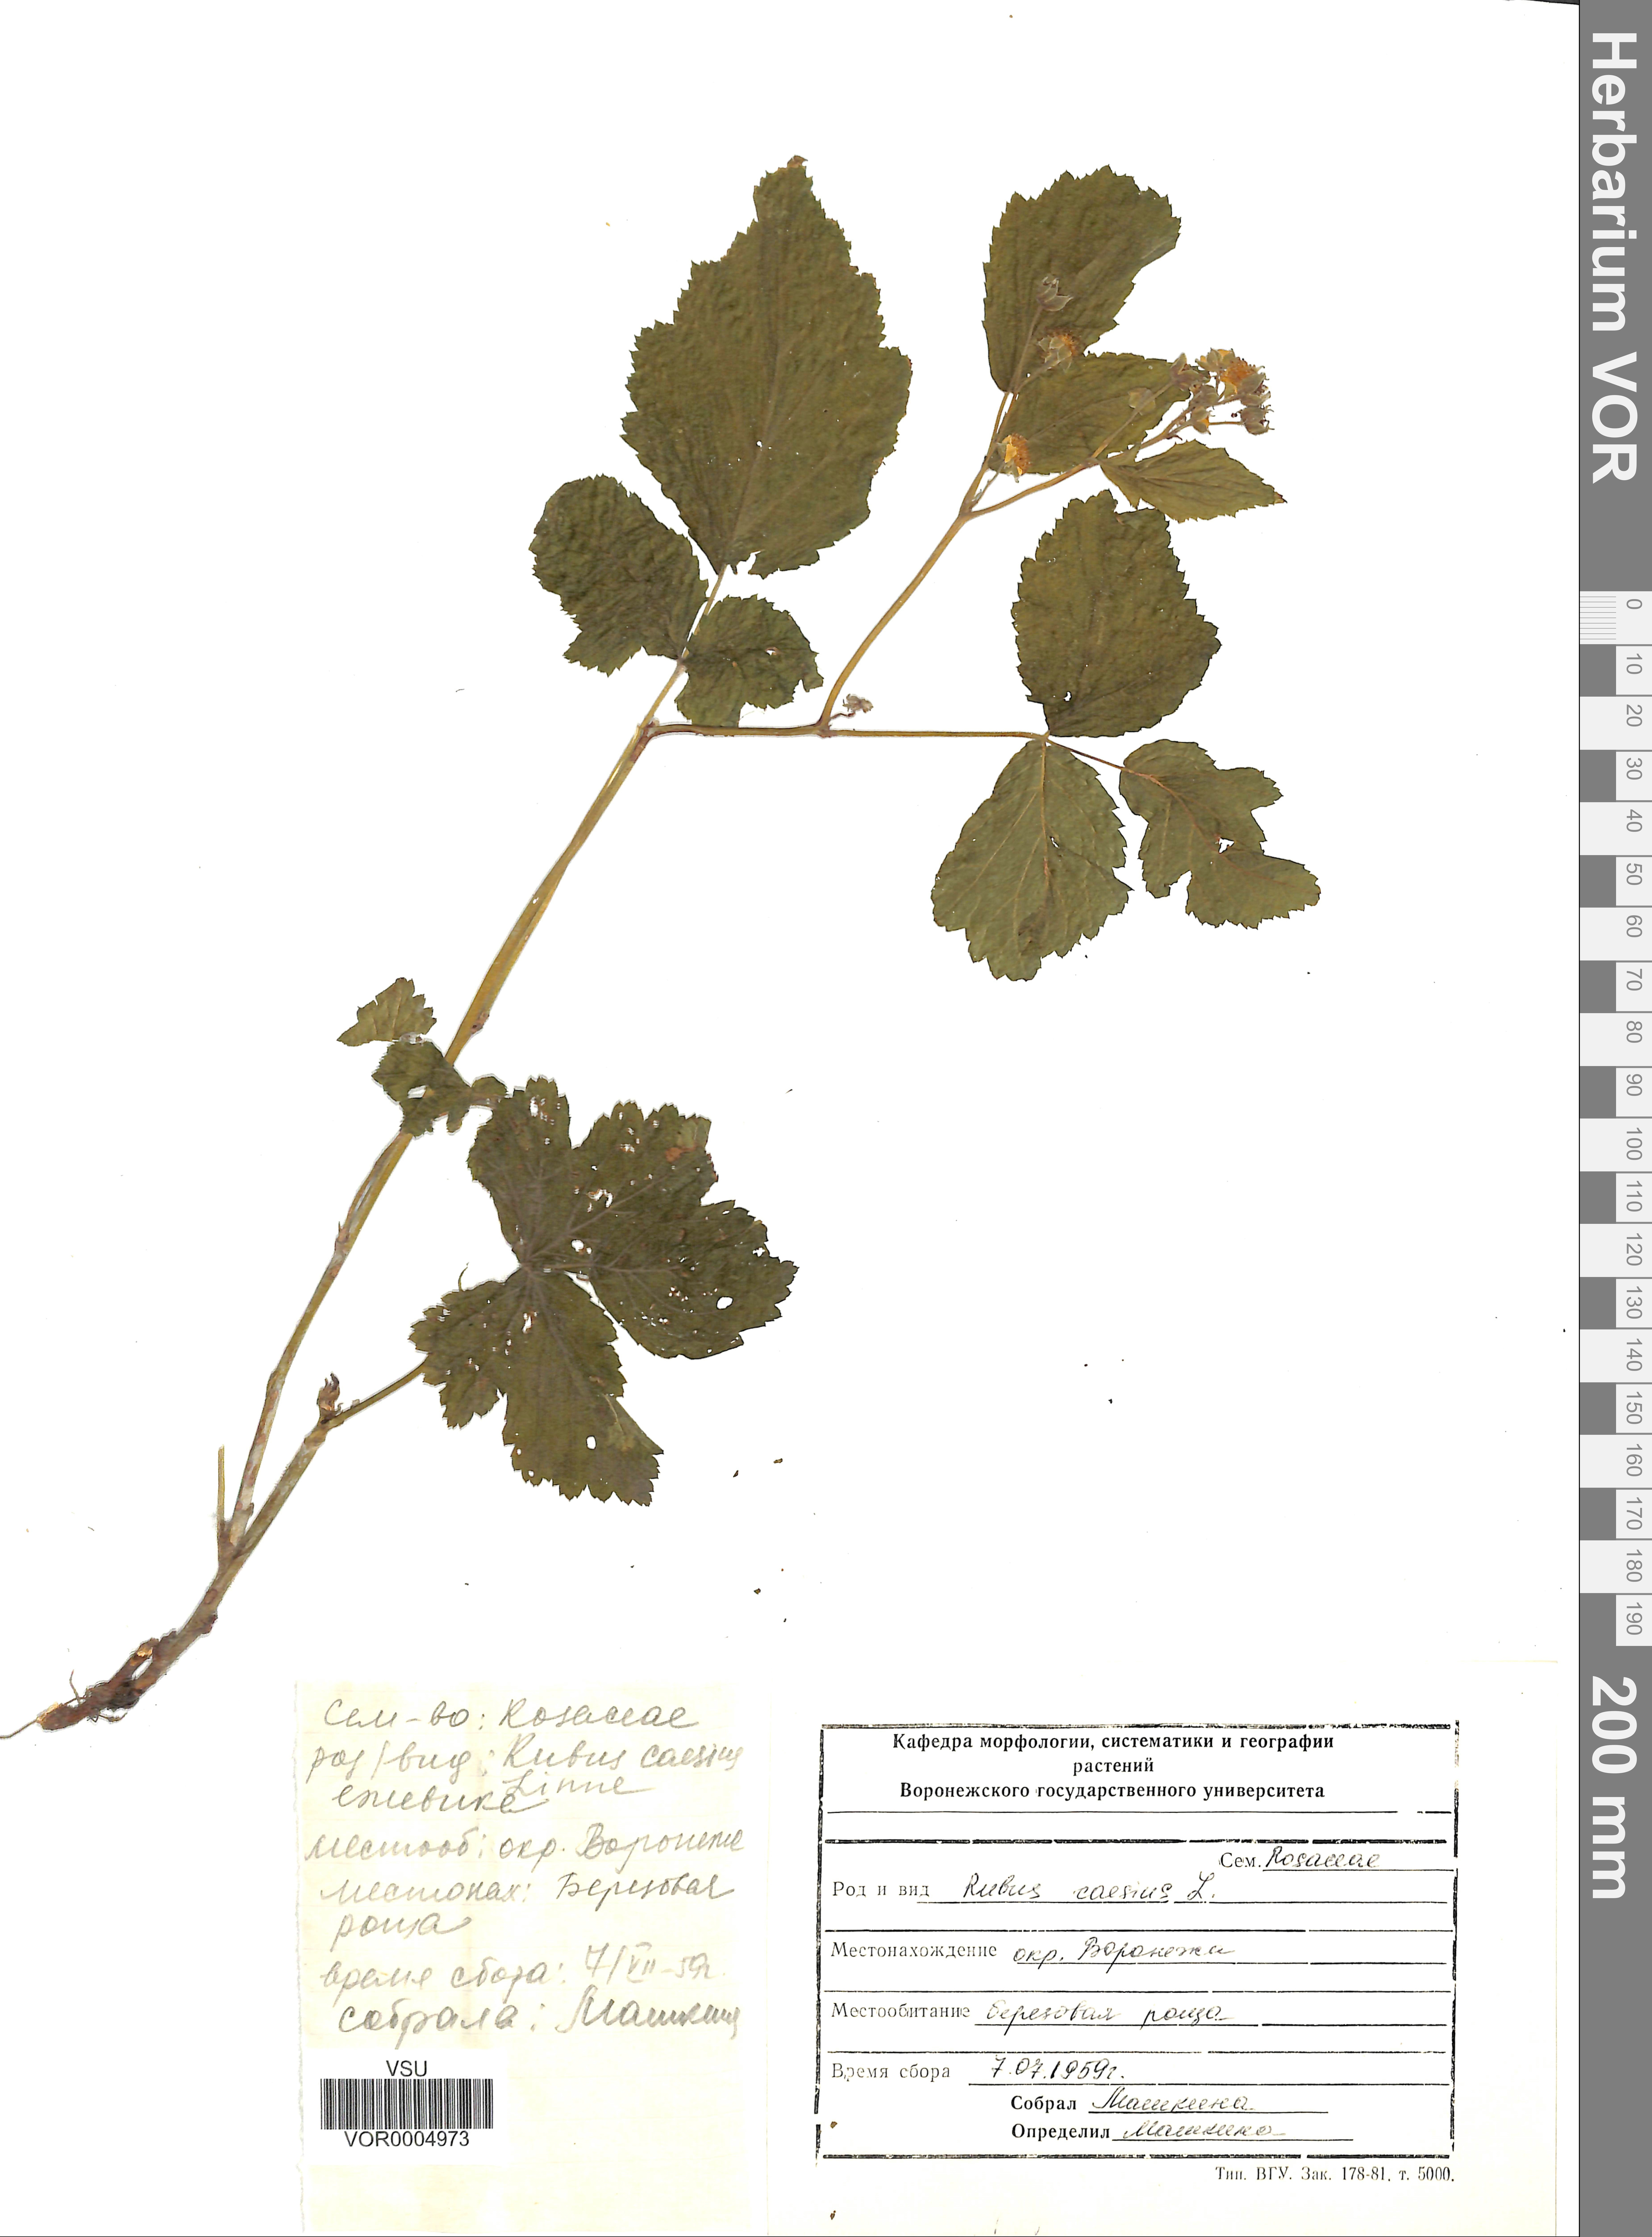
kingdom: Plantae
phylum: Tracheophyta
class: Magnoliopsida
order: Rosales
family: Rosaceae
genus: Rubus
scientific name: Rubus caesius
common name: Dewberry
